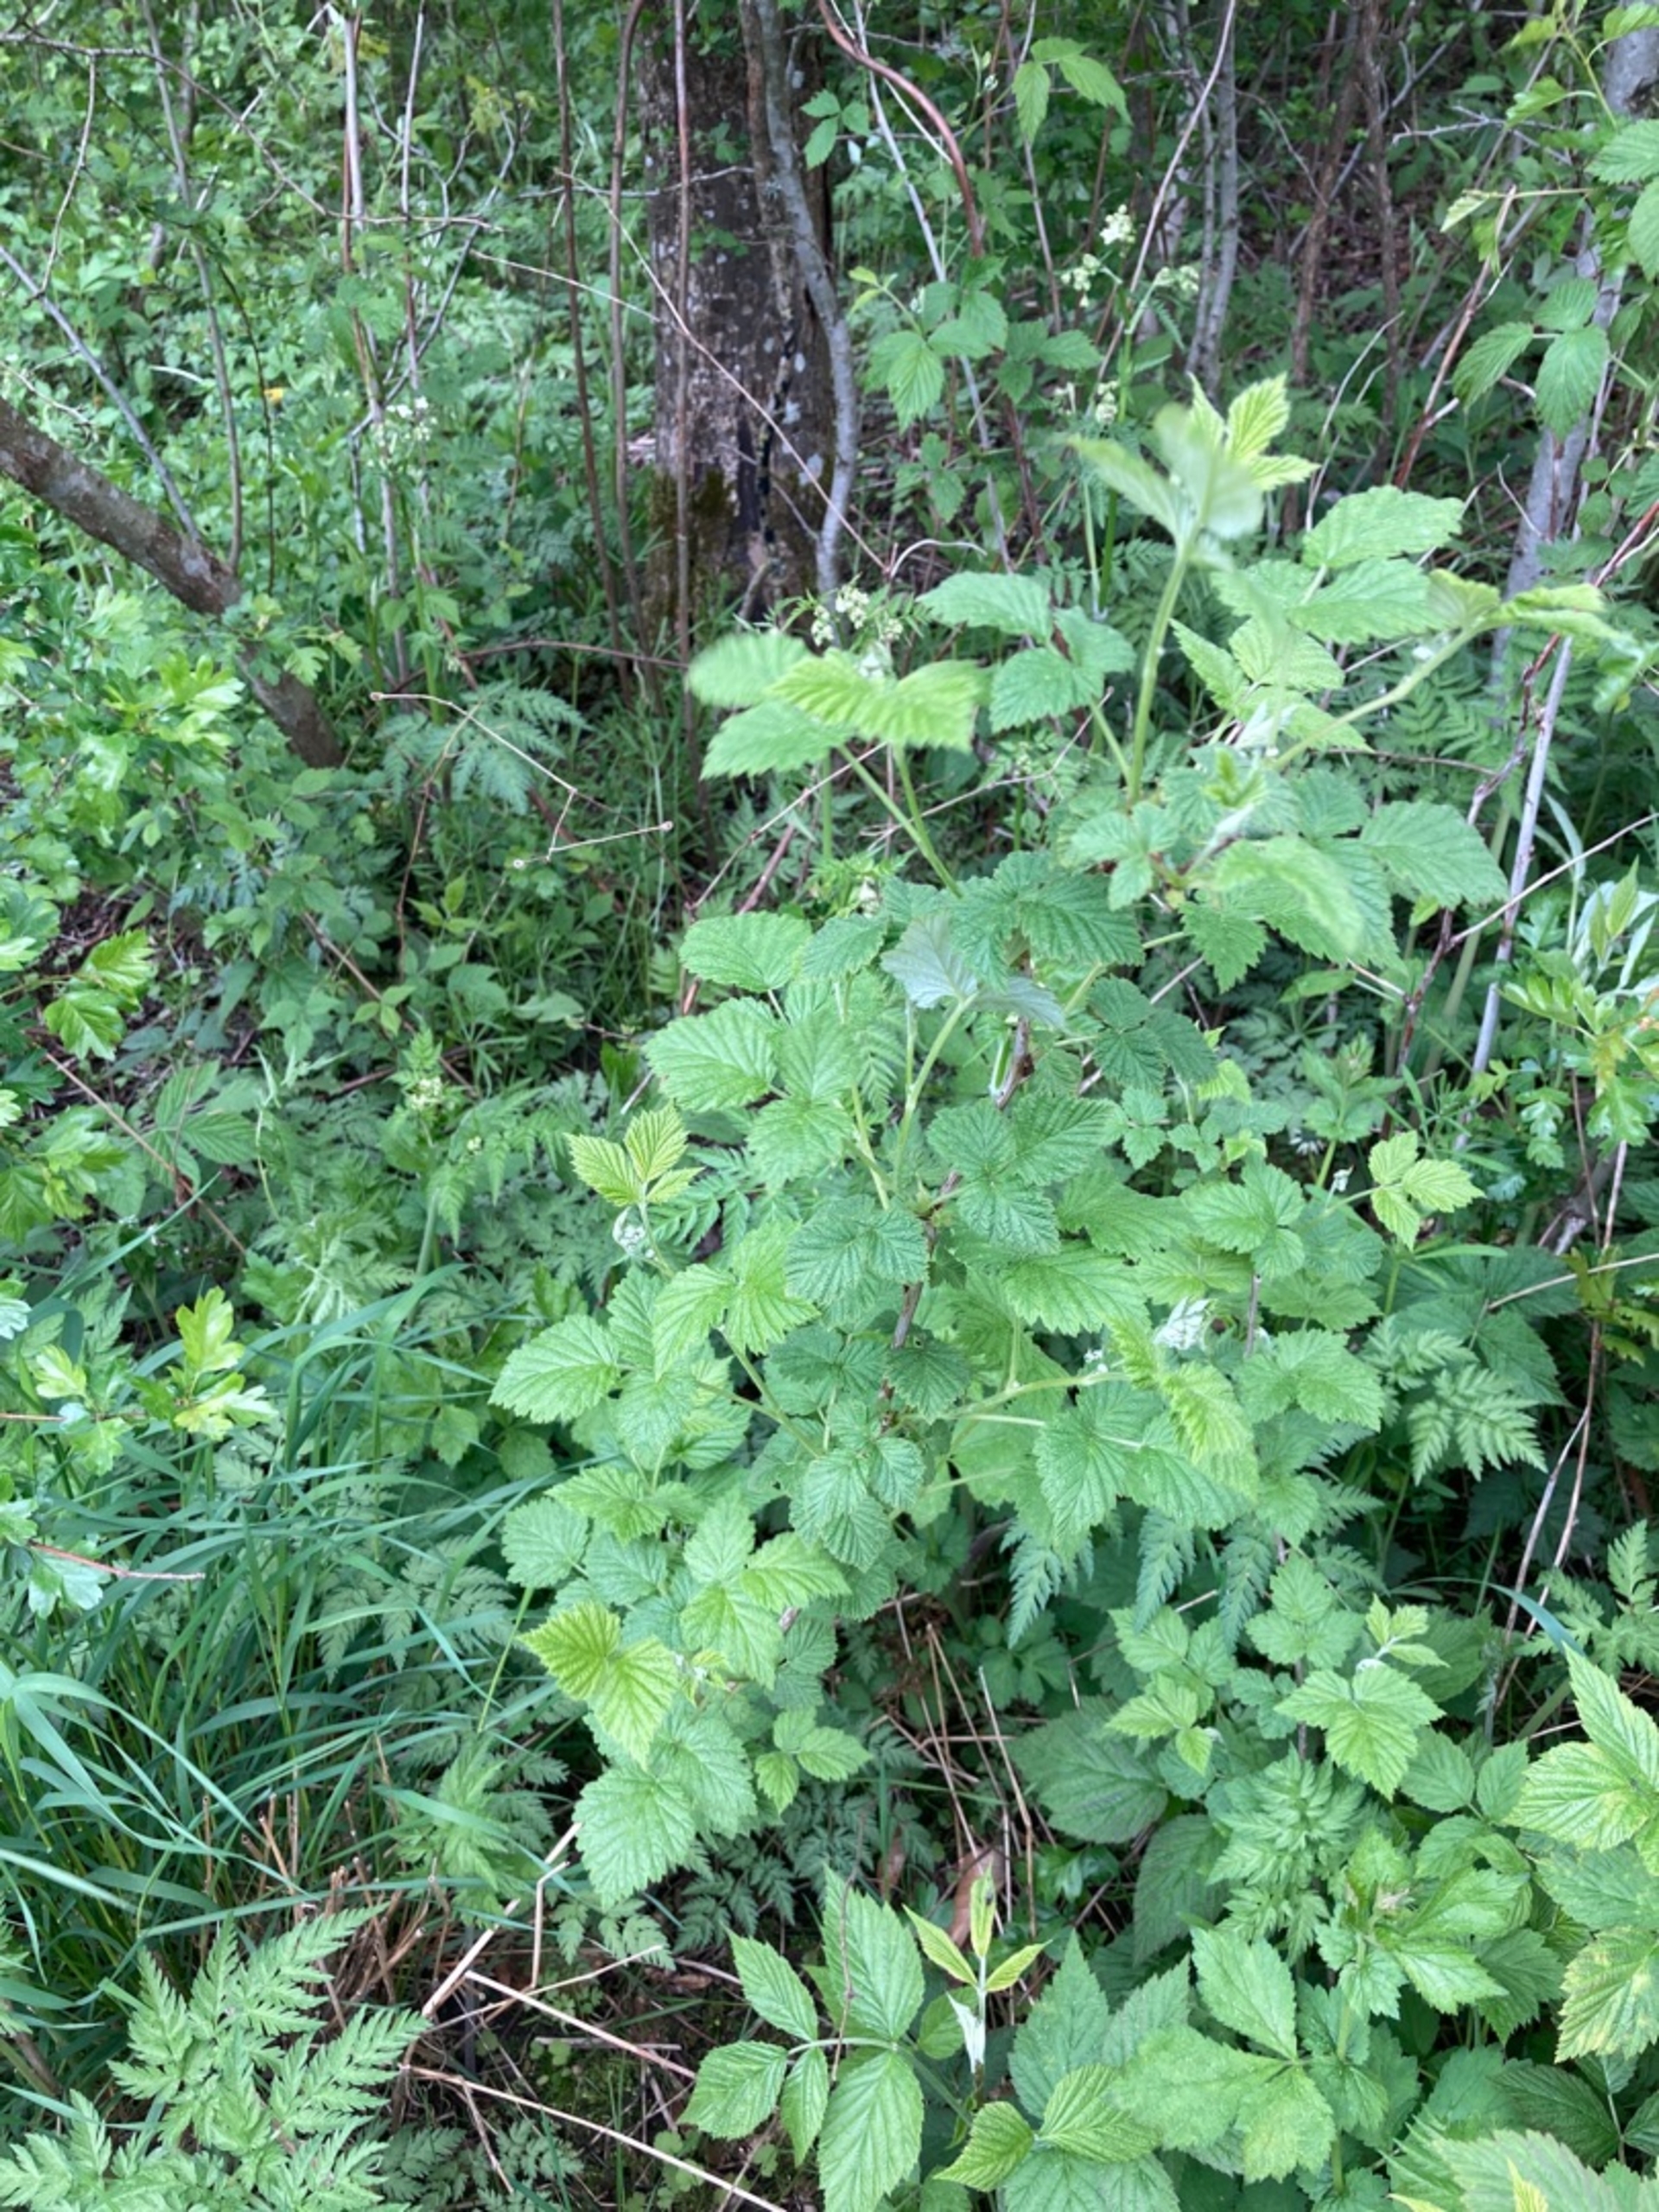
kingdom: Plantae
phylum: Tracheophyta
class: Magnoliopsida
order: Rosales
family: Rosaceae
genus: Rubus
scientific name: Rubus idaeus
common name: Hindbær
